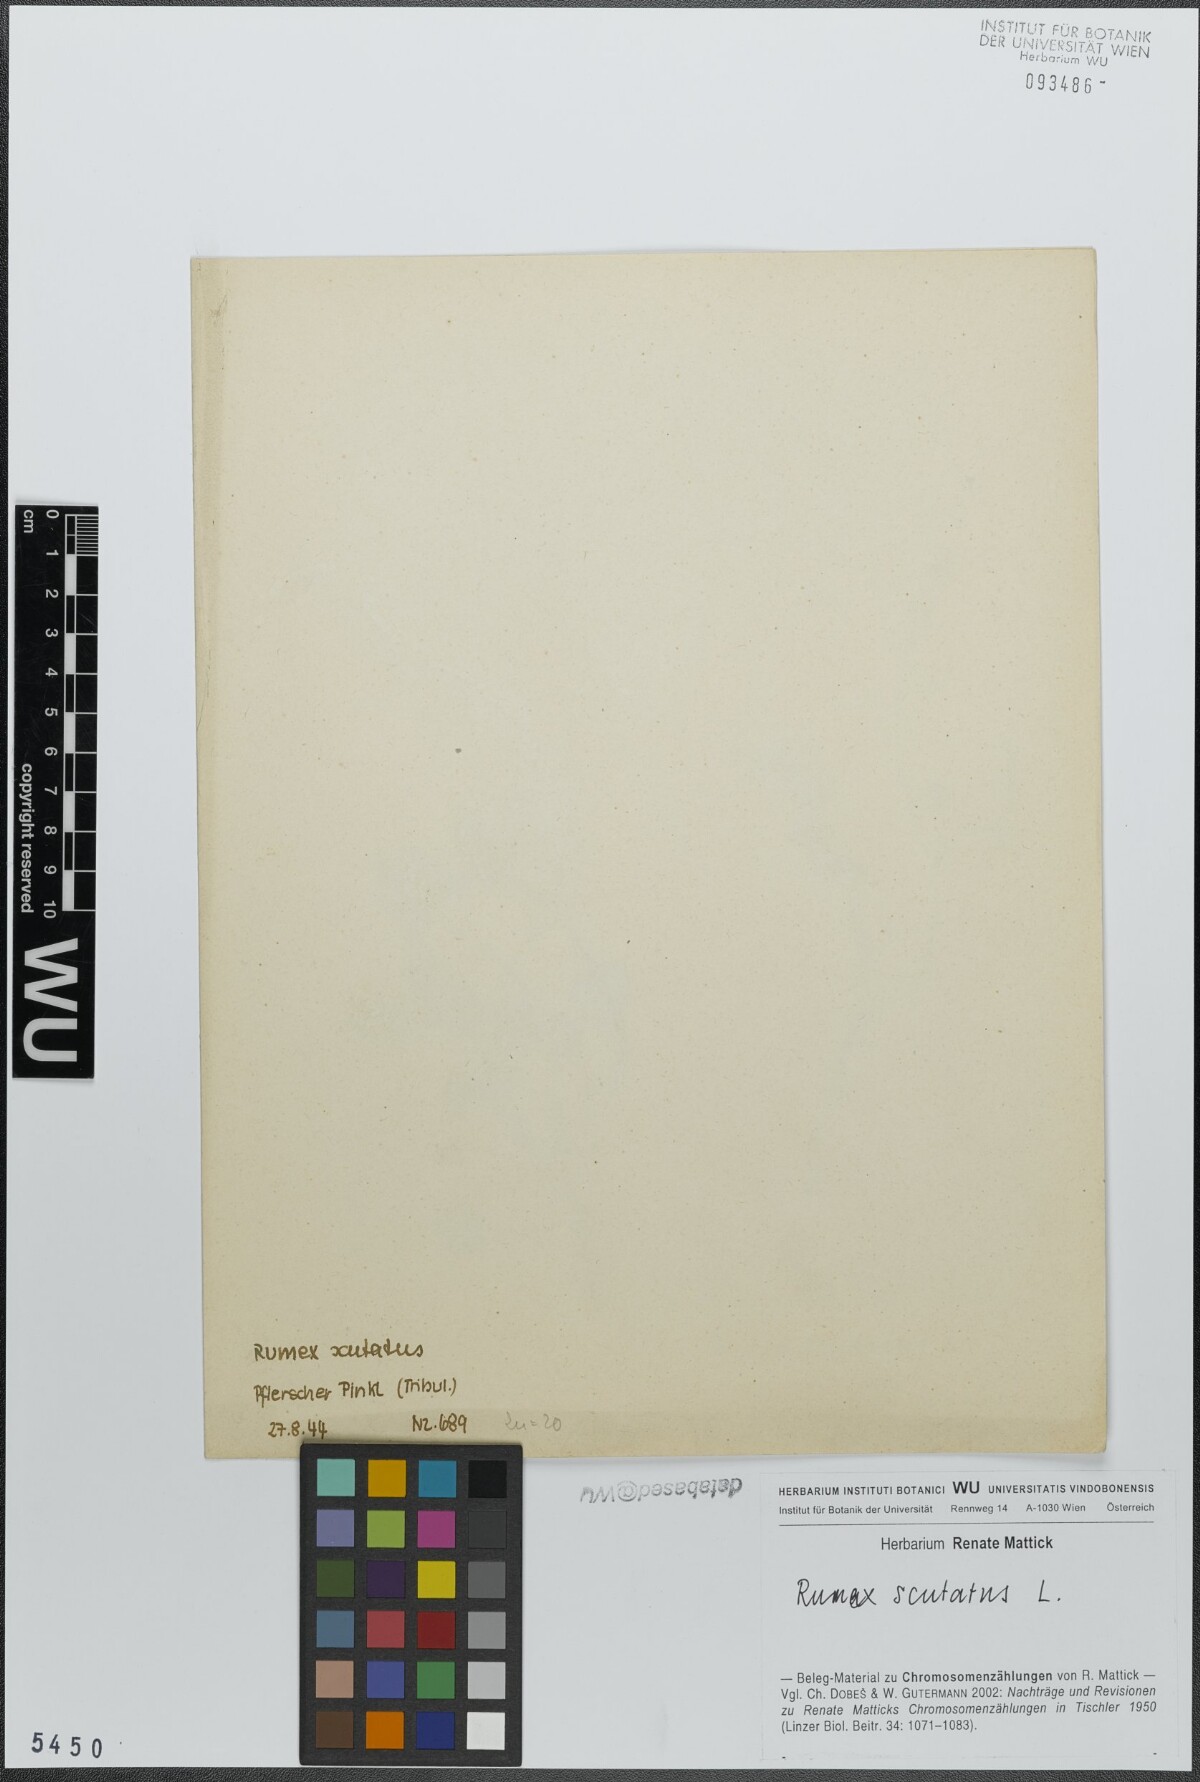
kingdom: Plantae
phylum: Tracheophyta
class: Magnoliopsida
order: Caryophyllales
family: Polygonaceae
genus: Rumex
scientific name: Rumex scutatus
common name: French sorrel
